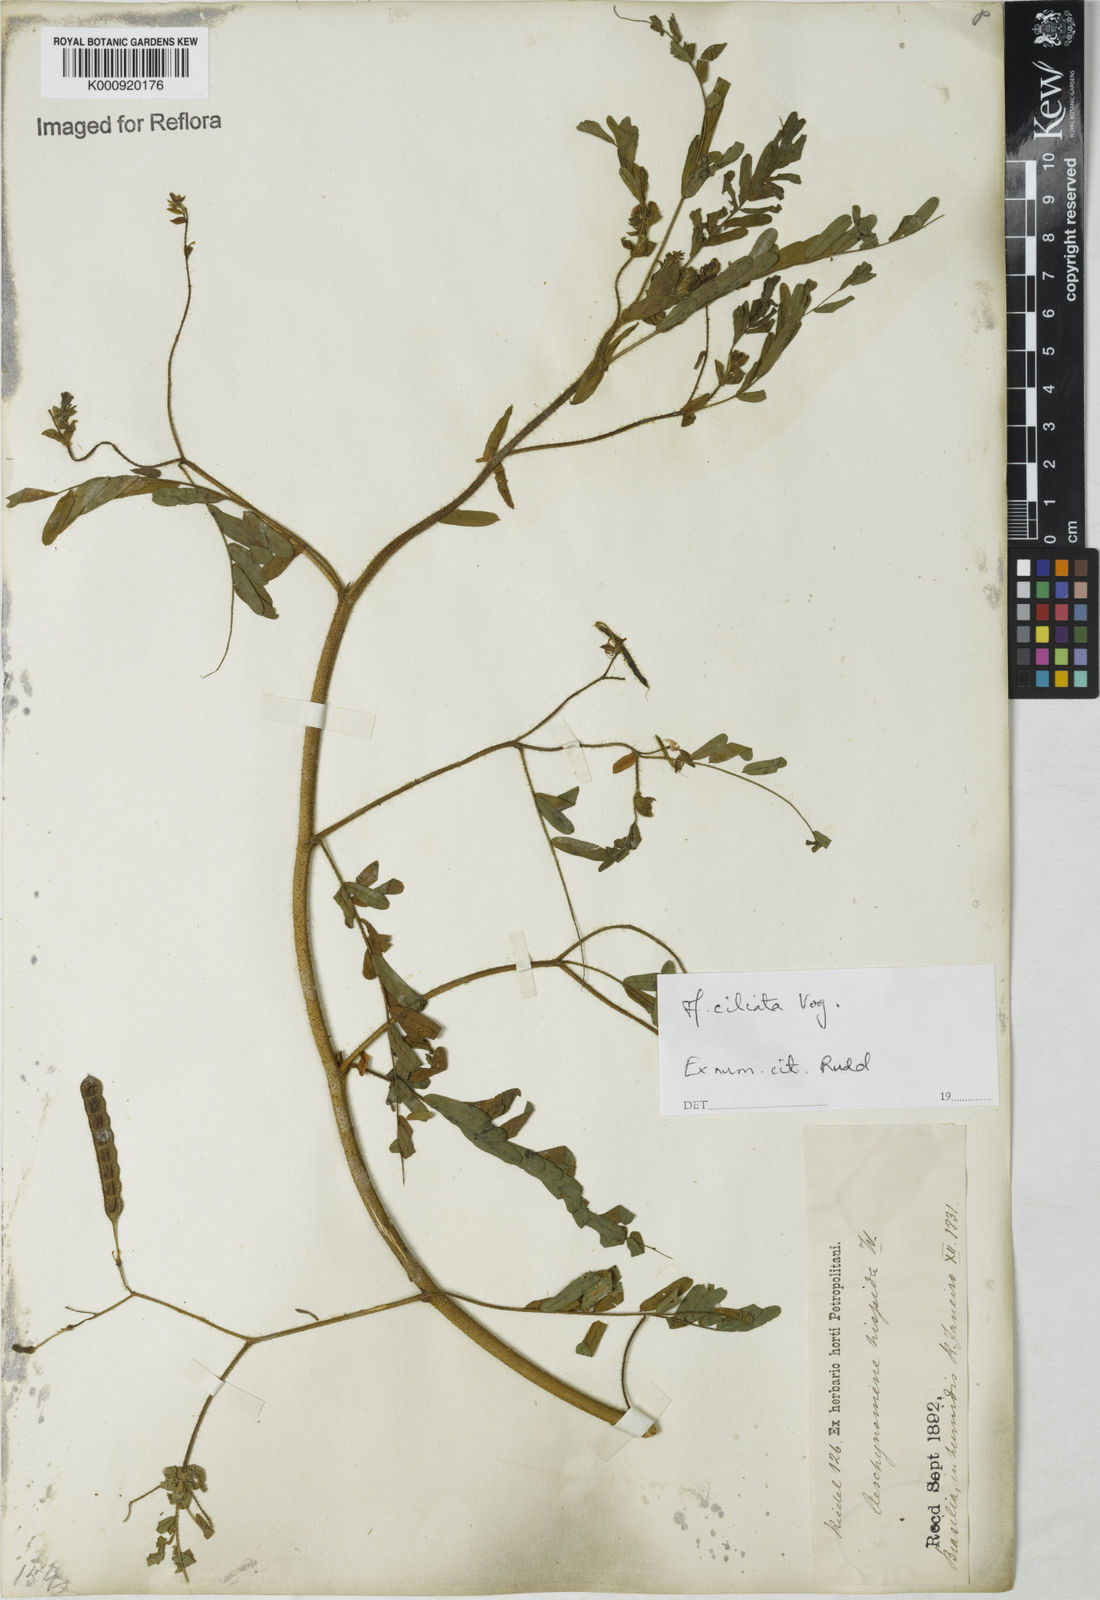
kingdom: Plantae
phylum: Tracheophyta
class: Magnoliopsida
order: Fabales
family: Fabaceae
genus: Aeschynomene
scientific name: Aeschynomene ciliata
